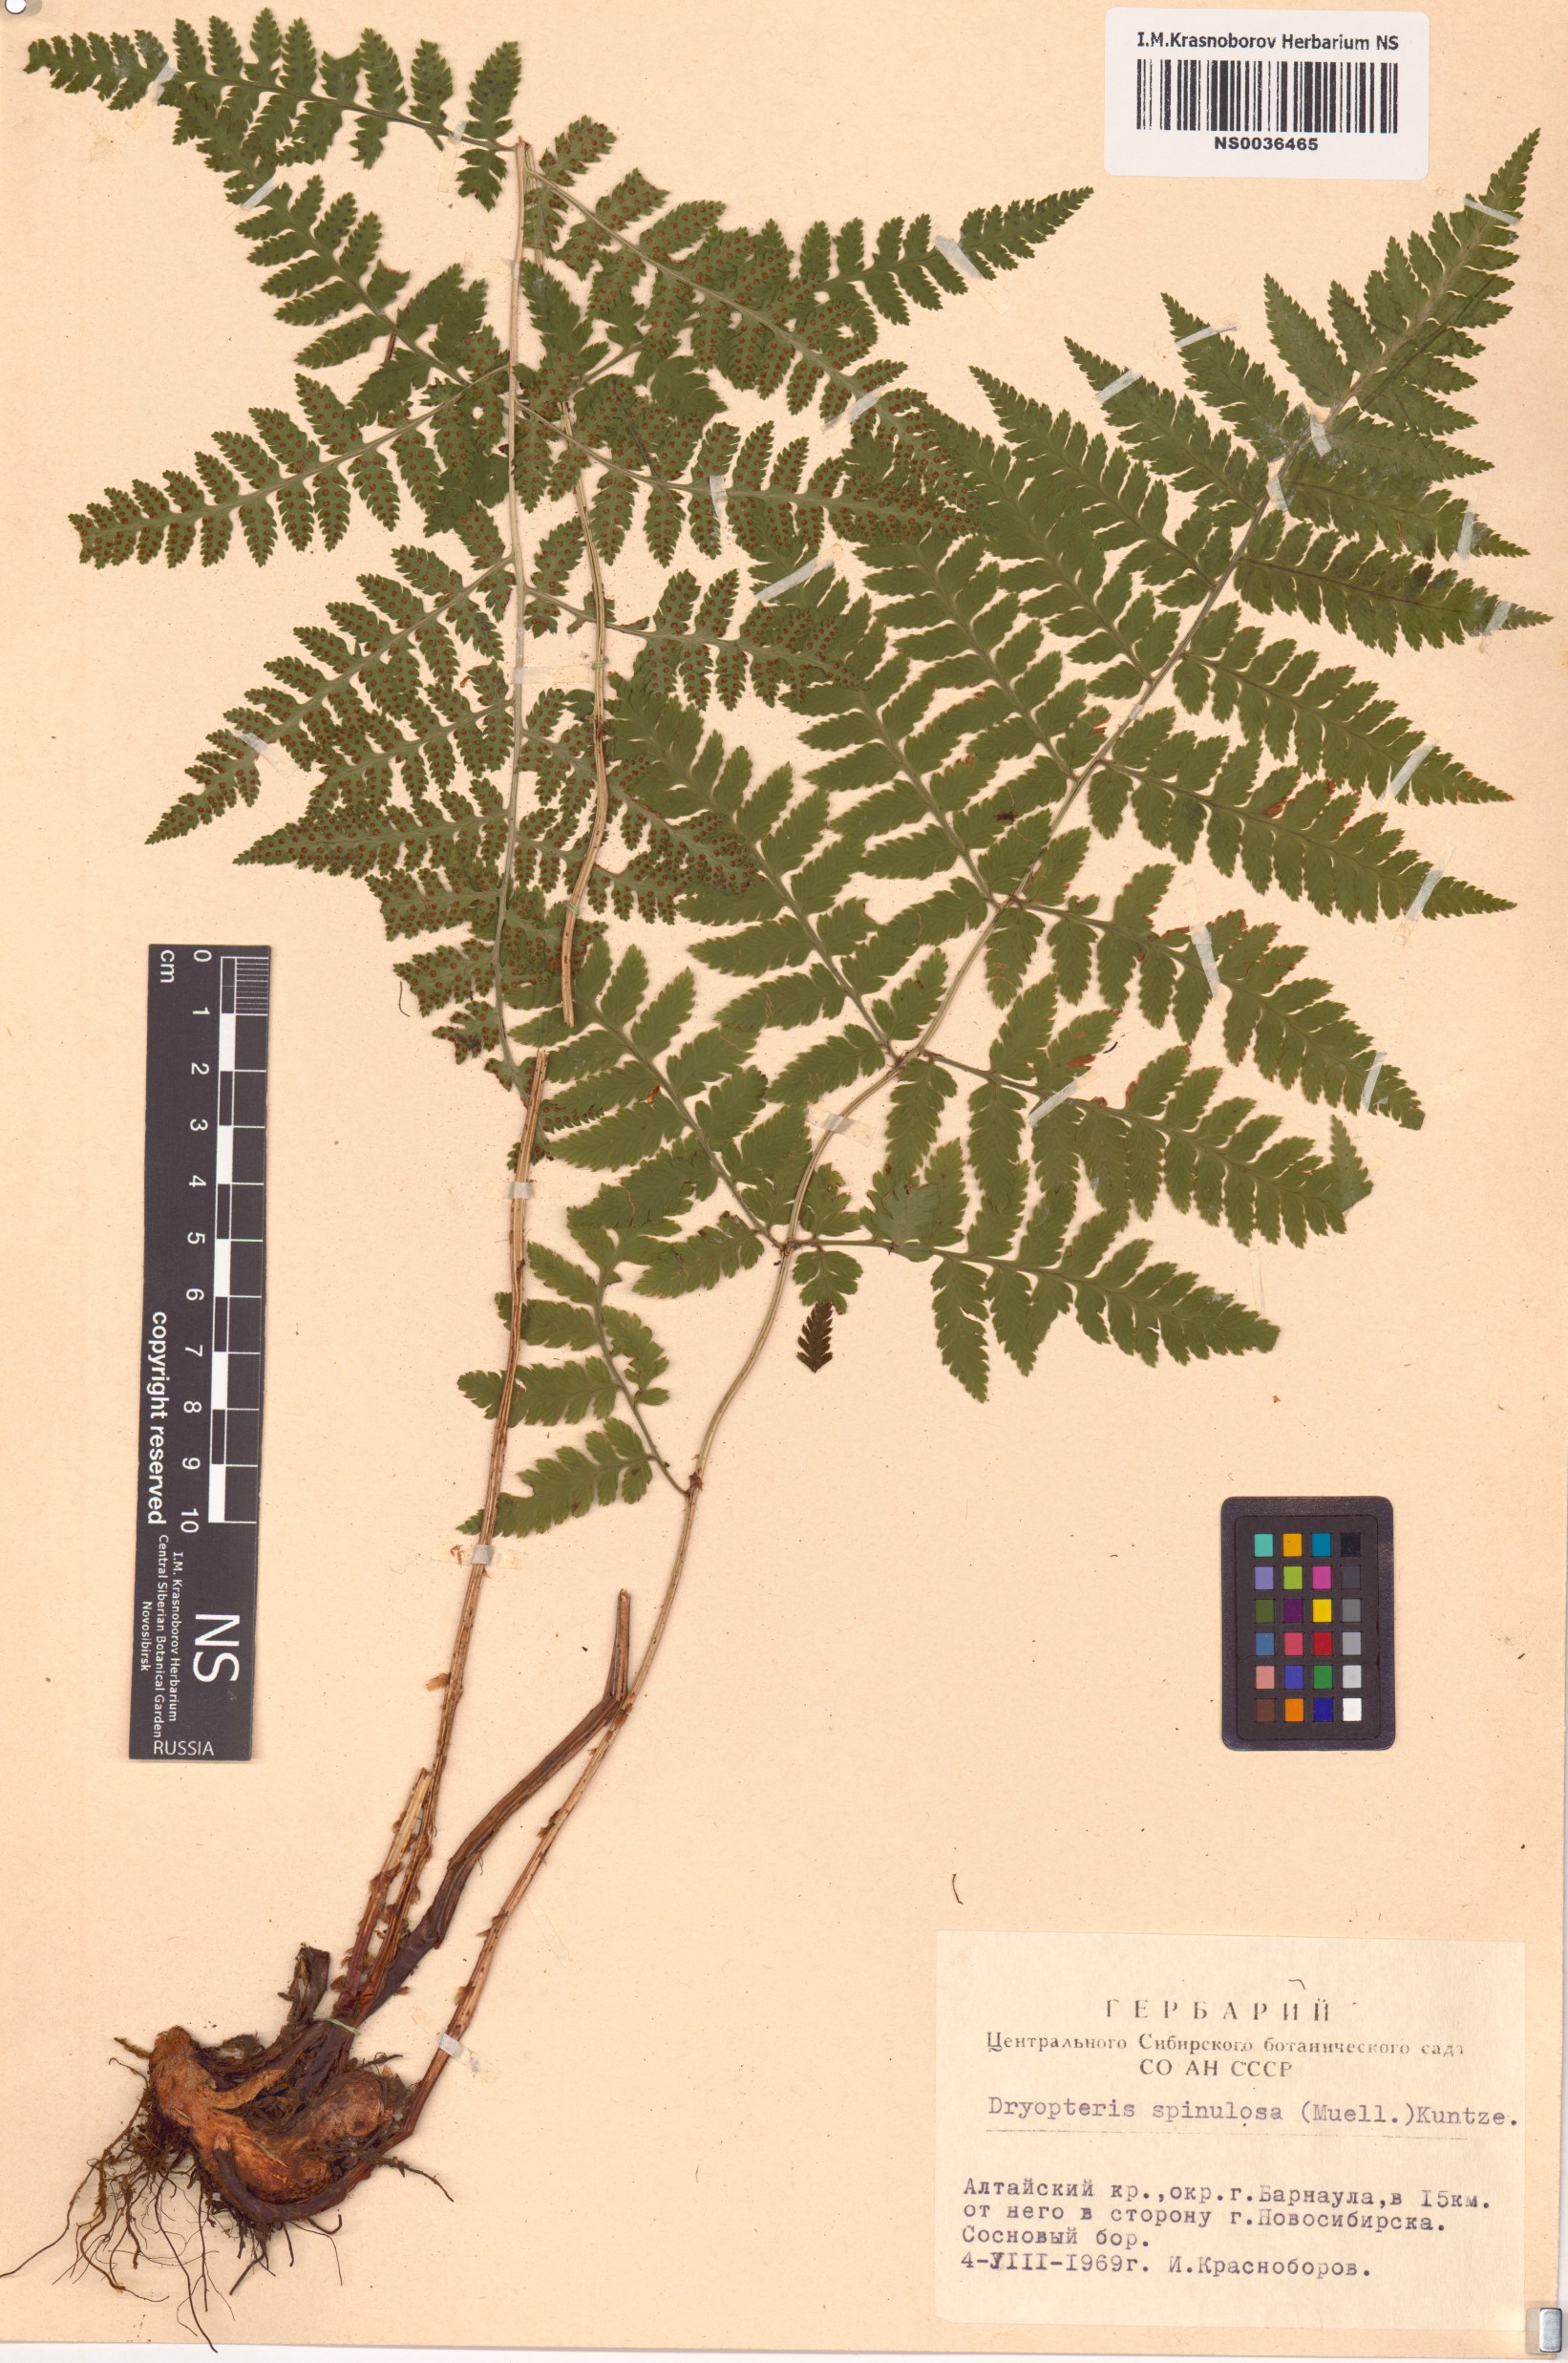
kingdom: Plantae
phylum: Tracheophyta
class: Polypodiopsida
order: Polypodiales
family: Dryopteridaceae
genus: Dryopteris
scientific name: Dryopteris carthusiana
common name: Narrow buckler-fern
